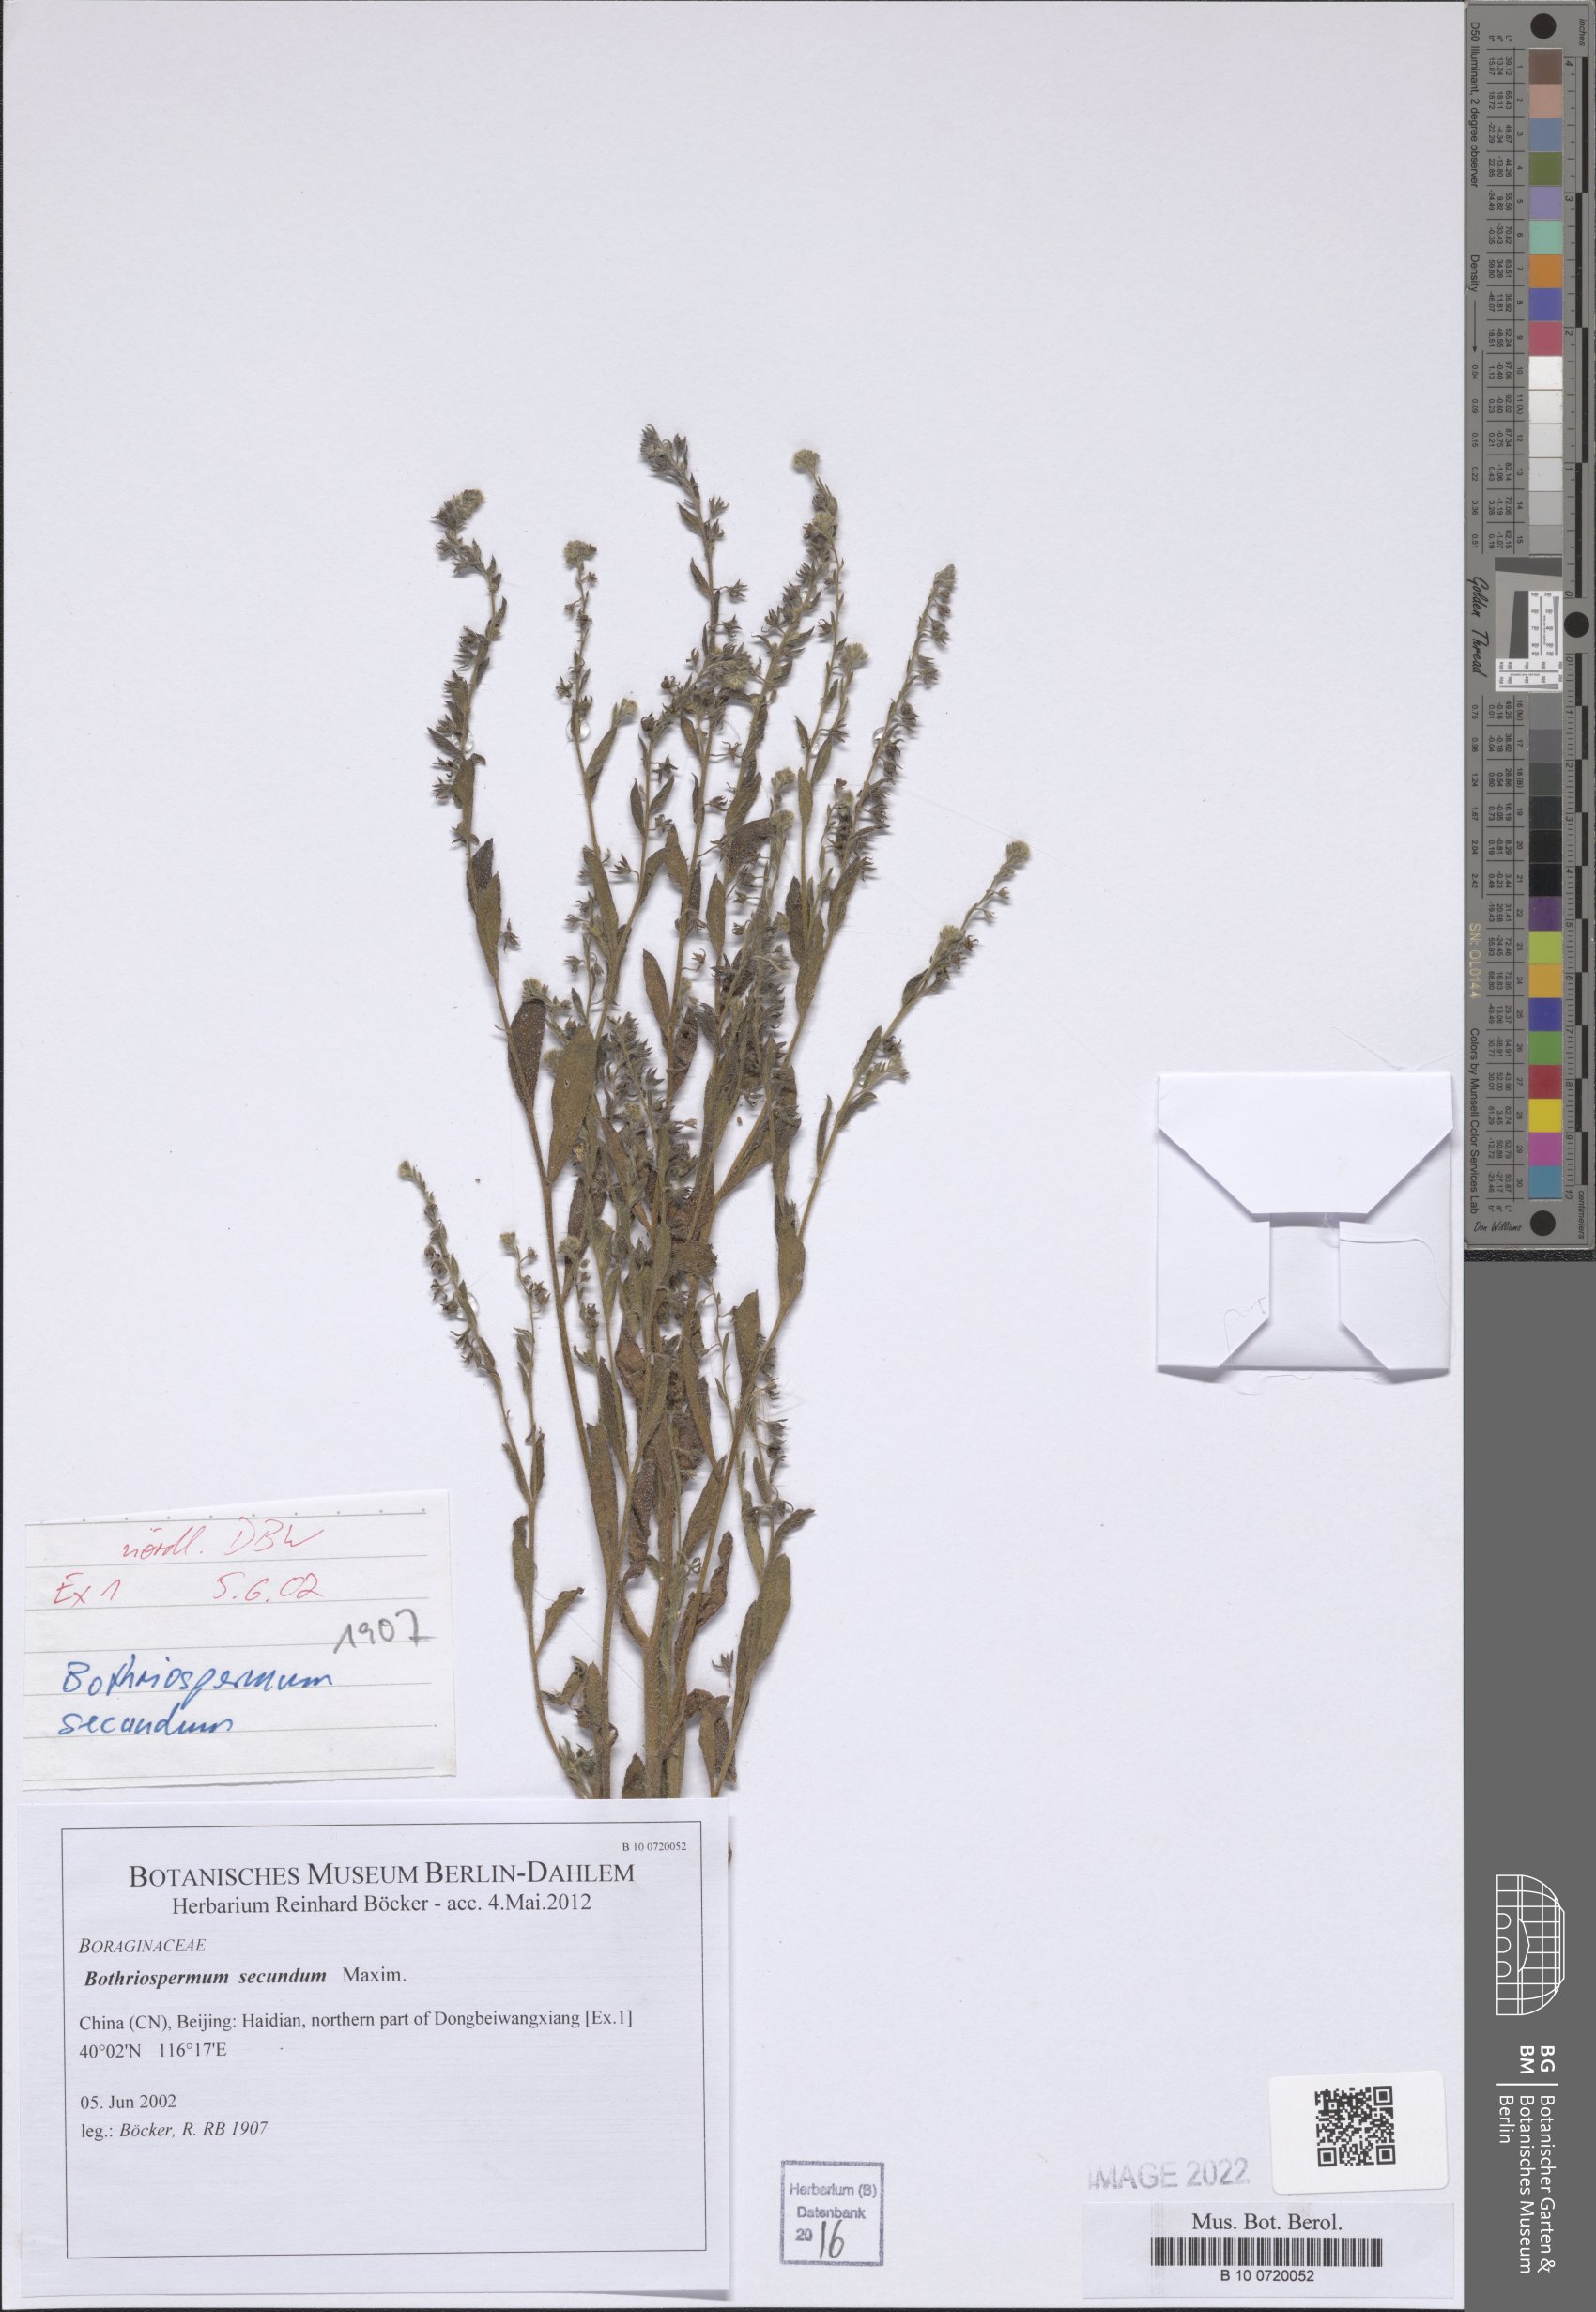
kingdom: Plantae
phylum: Tracheophyta
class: Magnoliopsida
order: Boraginales
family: Boraginaceae
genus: Bothriospermum
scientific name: Bothriospermum secundum
